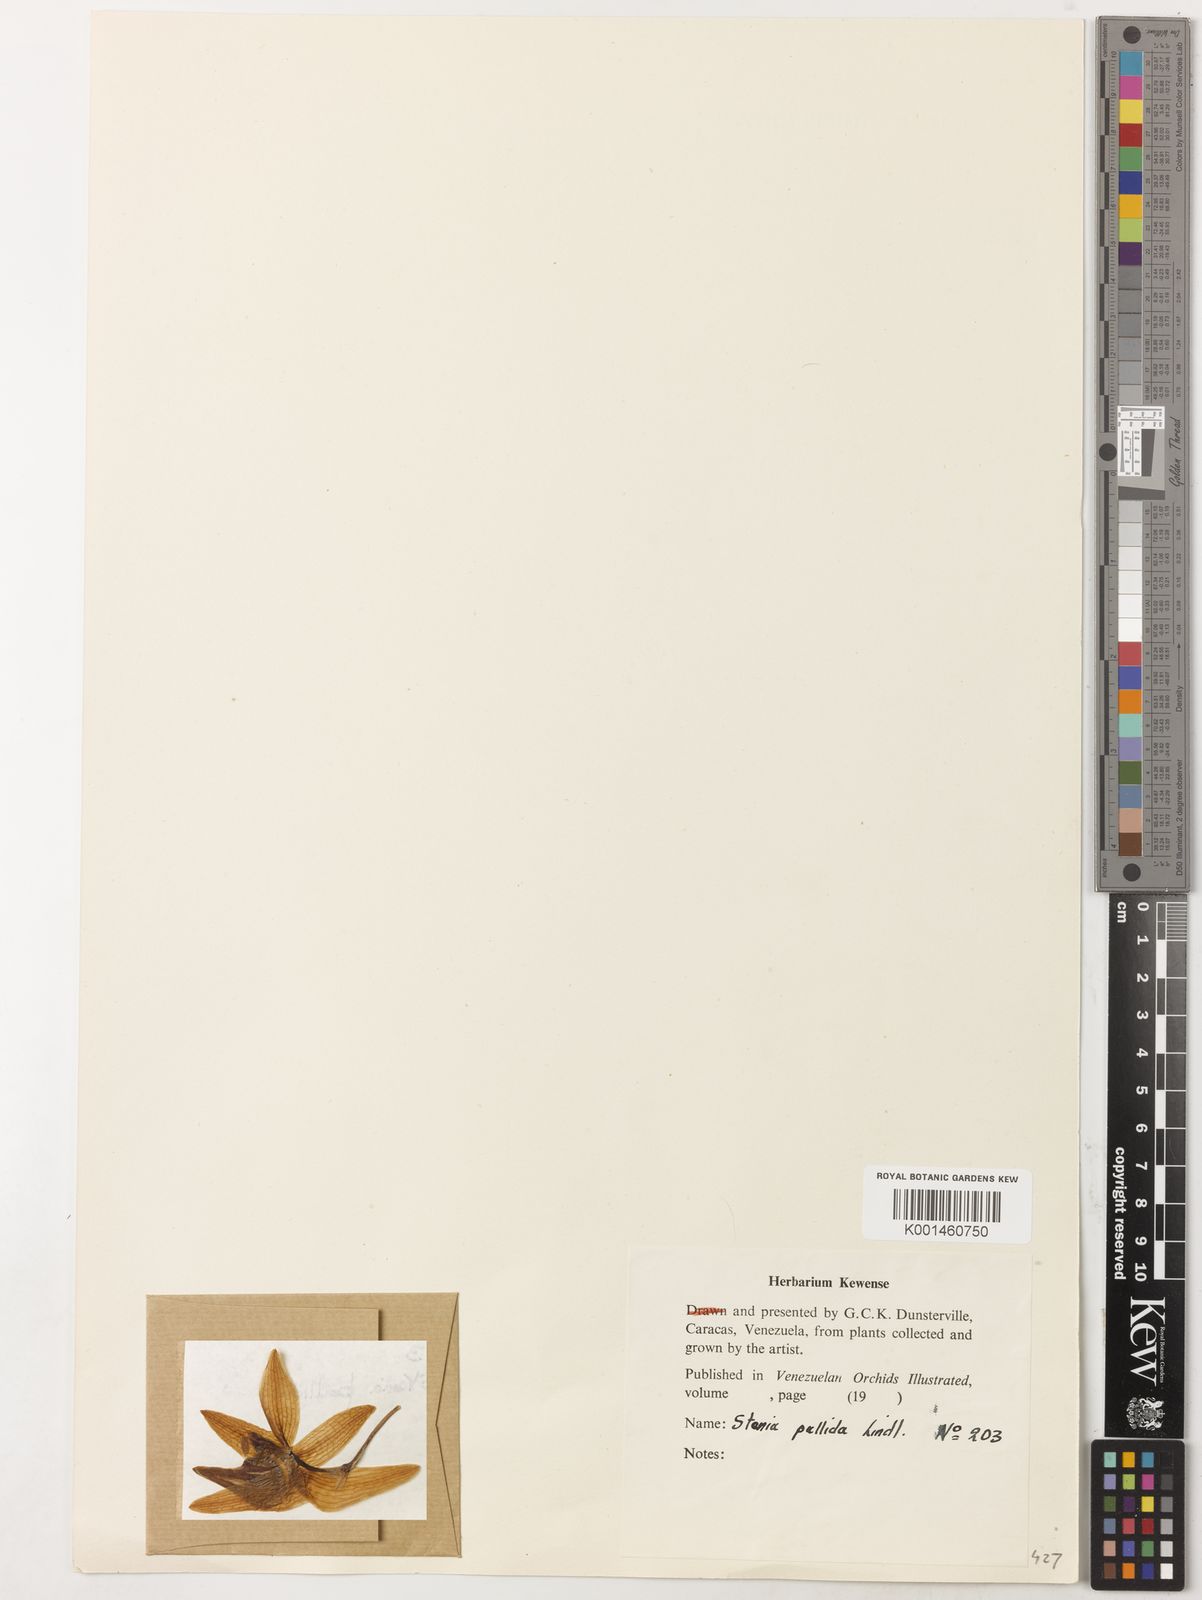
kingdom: Plantae
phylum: Tracheophyta
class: Liliopsida
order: Asparagales
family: Orchidaceae
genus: Stenia
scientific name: Stenia pallida
